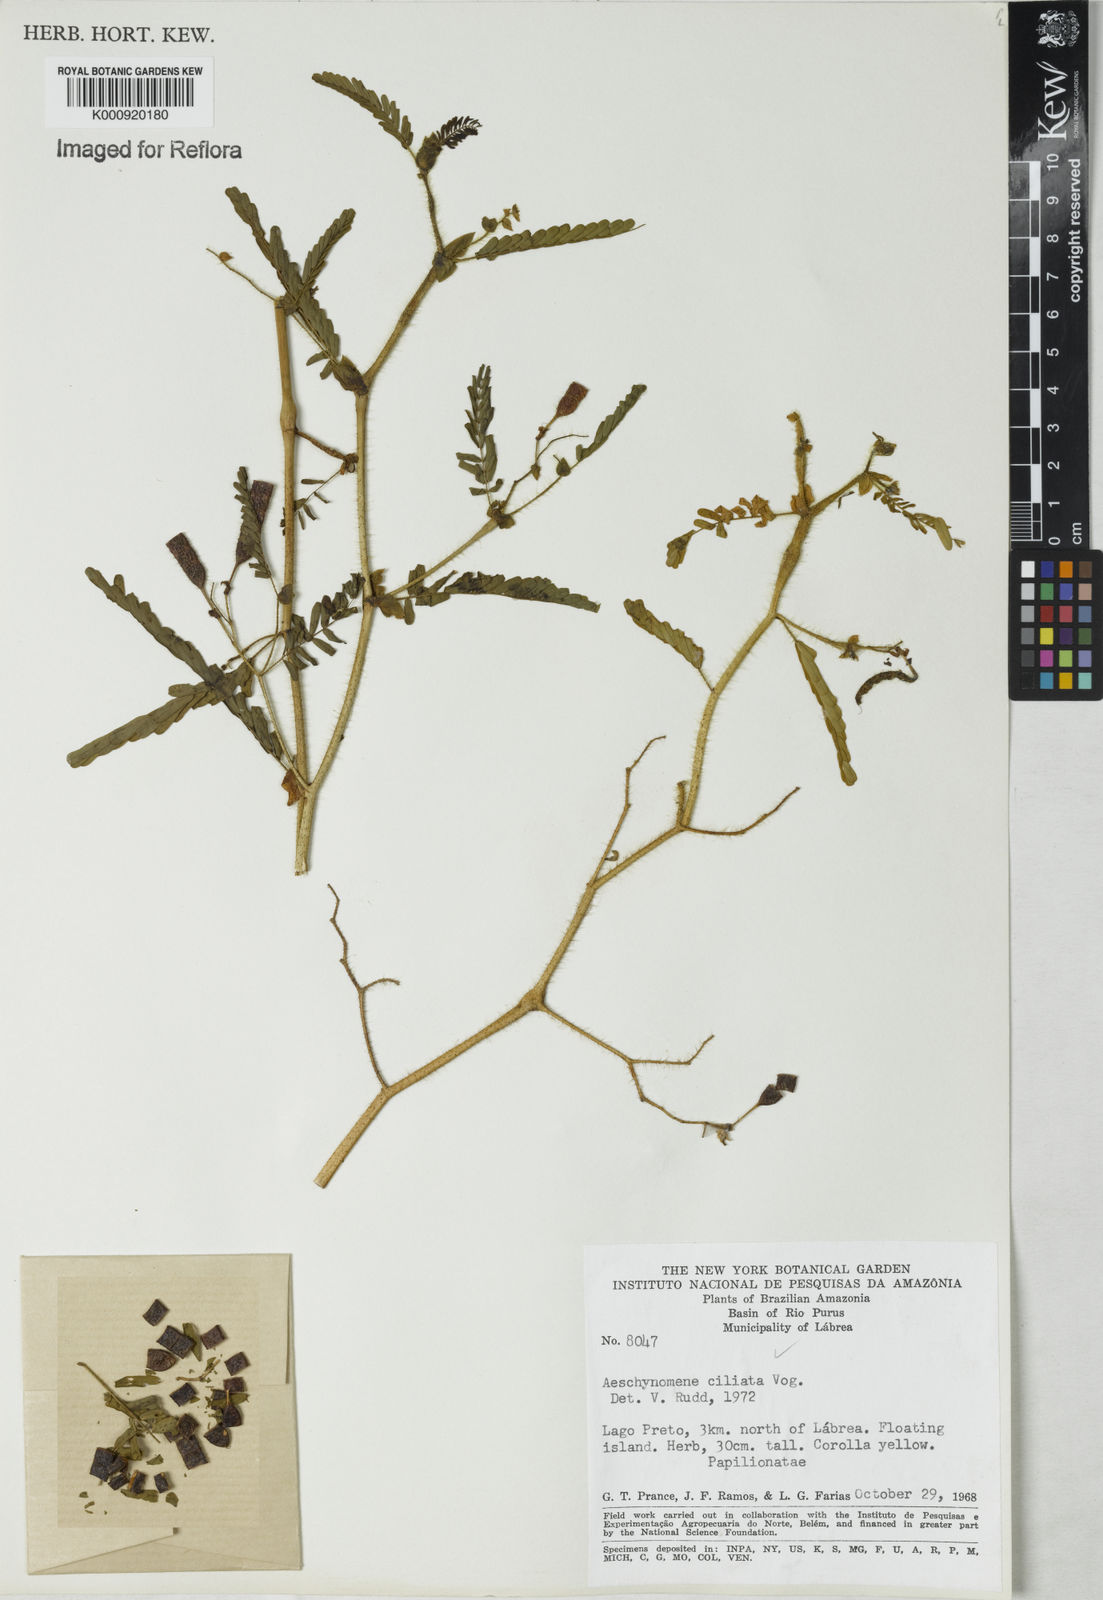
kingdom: Plantae
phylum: Tracheophyta
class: Magnoliopsida
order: Fabales
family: Fabaceae
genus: Aeschynomene
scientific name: Aeschynomene ciliata
